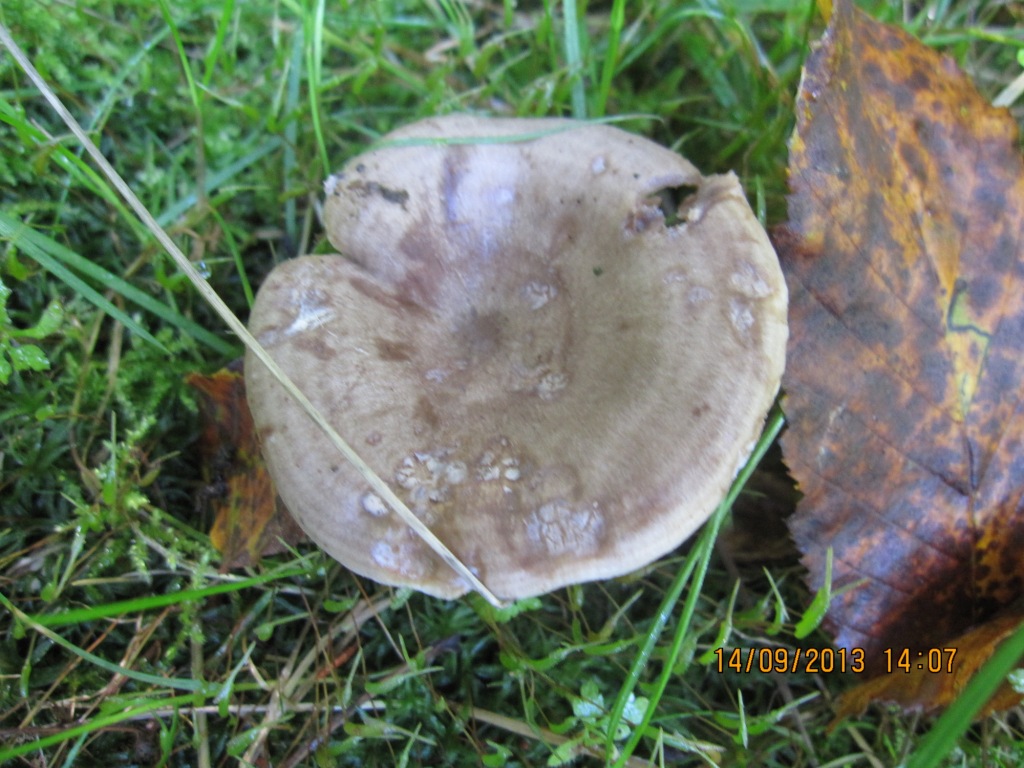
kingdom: Fungi
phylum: Basidiomycota
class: Agaricomycetes
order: Russulales
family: Russulaceae
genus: Lactarius
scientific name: Lactarius circellatus
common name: avnbøg-mælkehat
